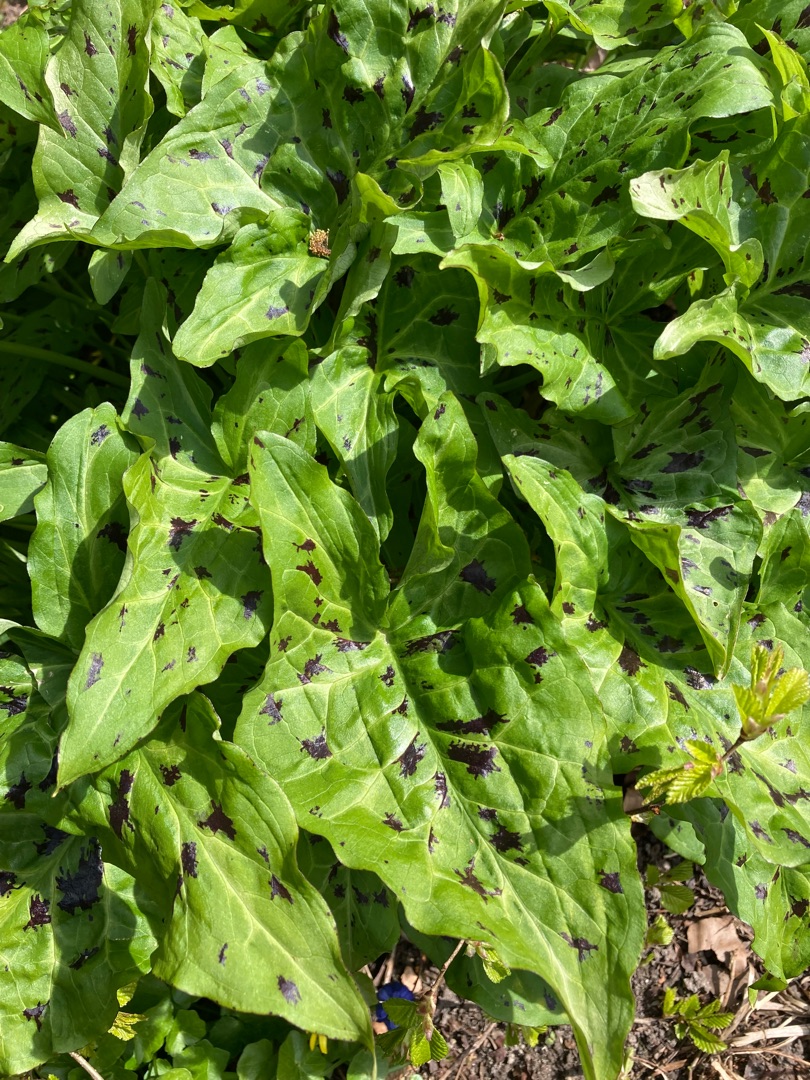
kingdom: Plantae
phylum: Tracheophyta
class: Liliopsida
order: Alismatales
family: Araceae
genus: Arum
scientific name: Arum maculatum
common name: Plettet arum
